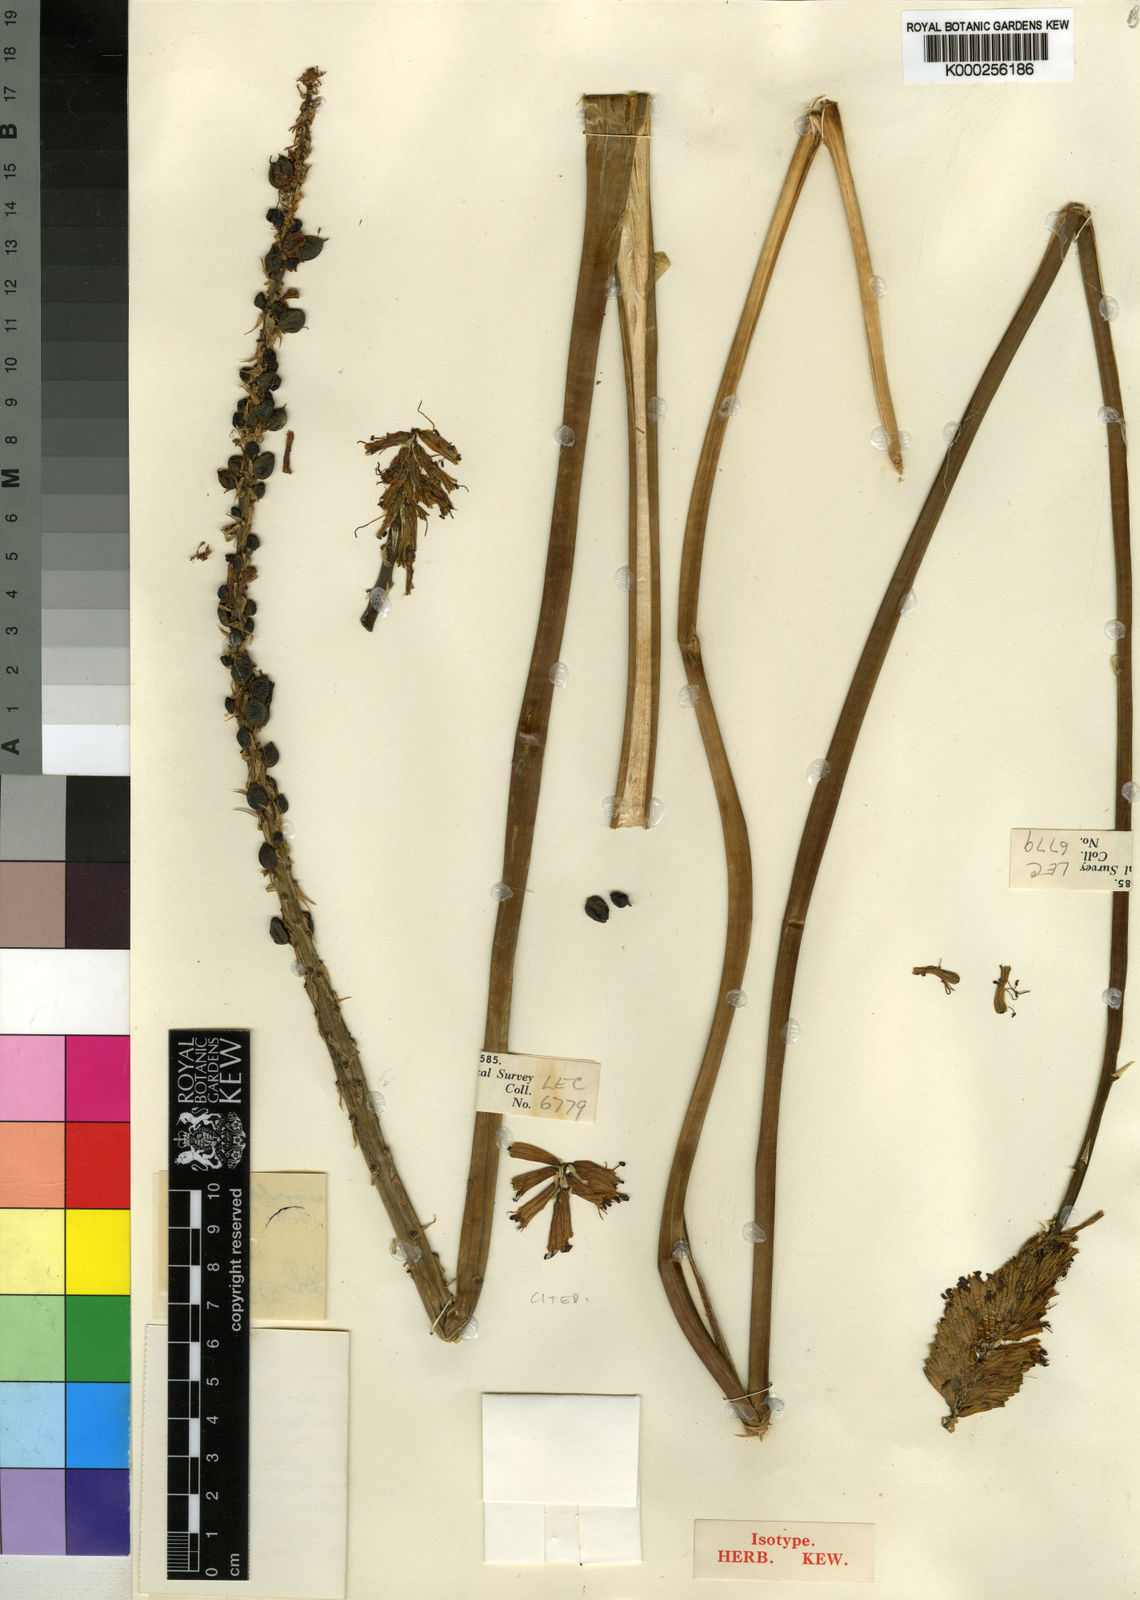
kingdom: Plantae
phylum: Tracheophyta
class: Liliopsida
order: Asparagales
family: Asphodelaceae
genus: Kniphofia
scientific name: Kniphofia flammula
